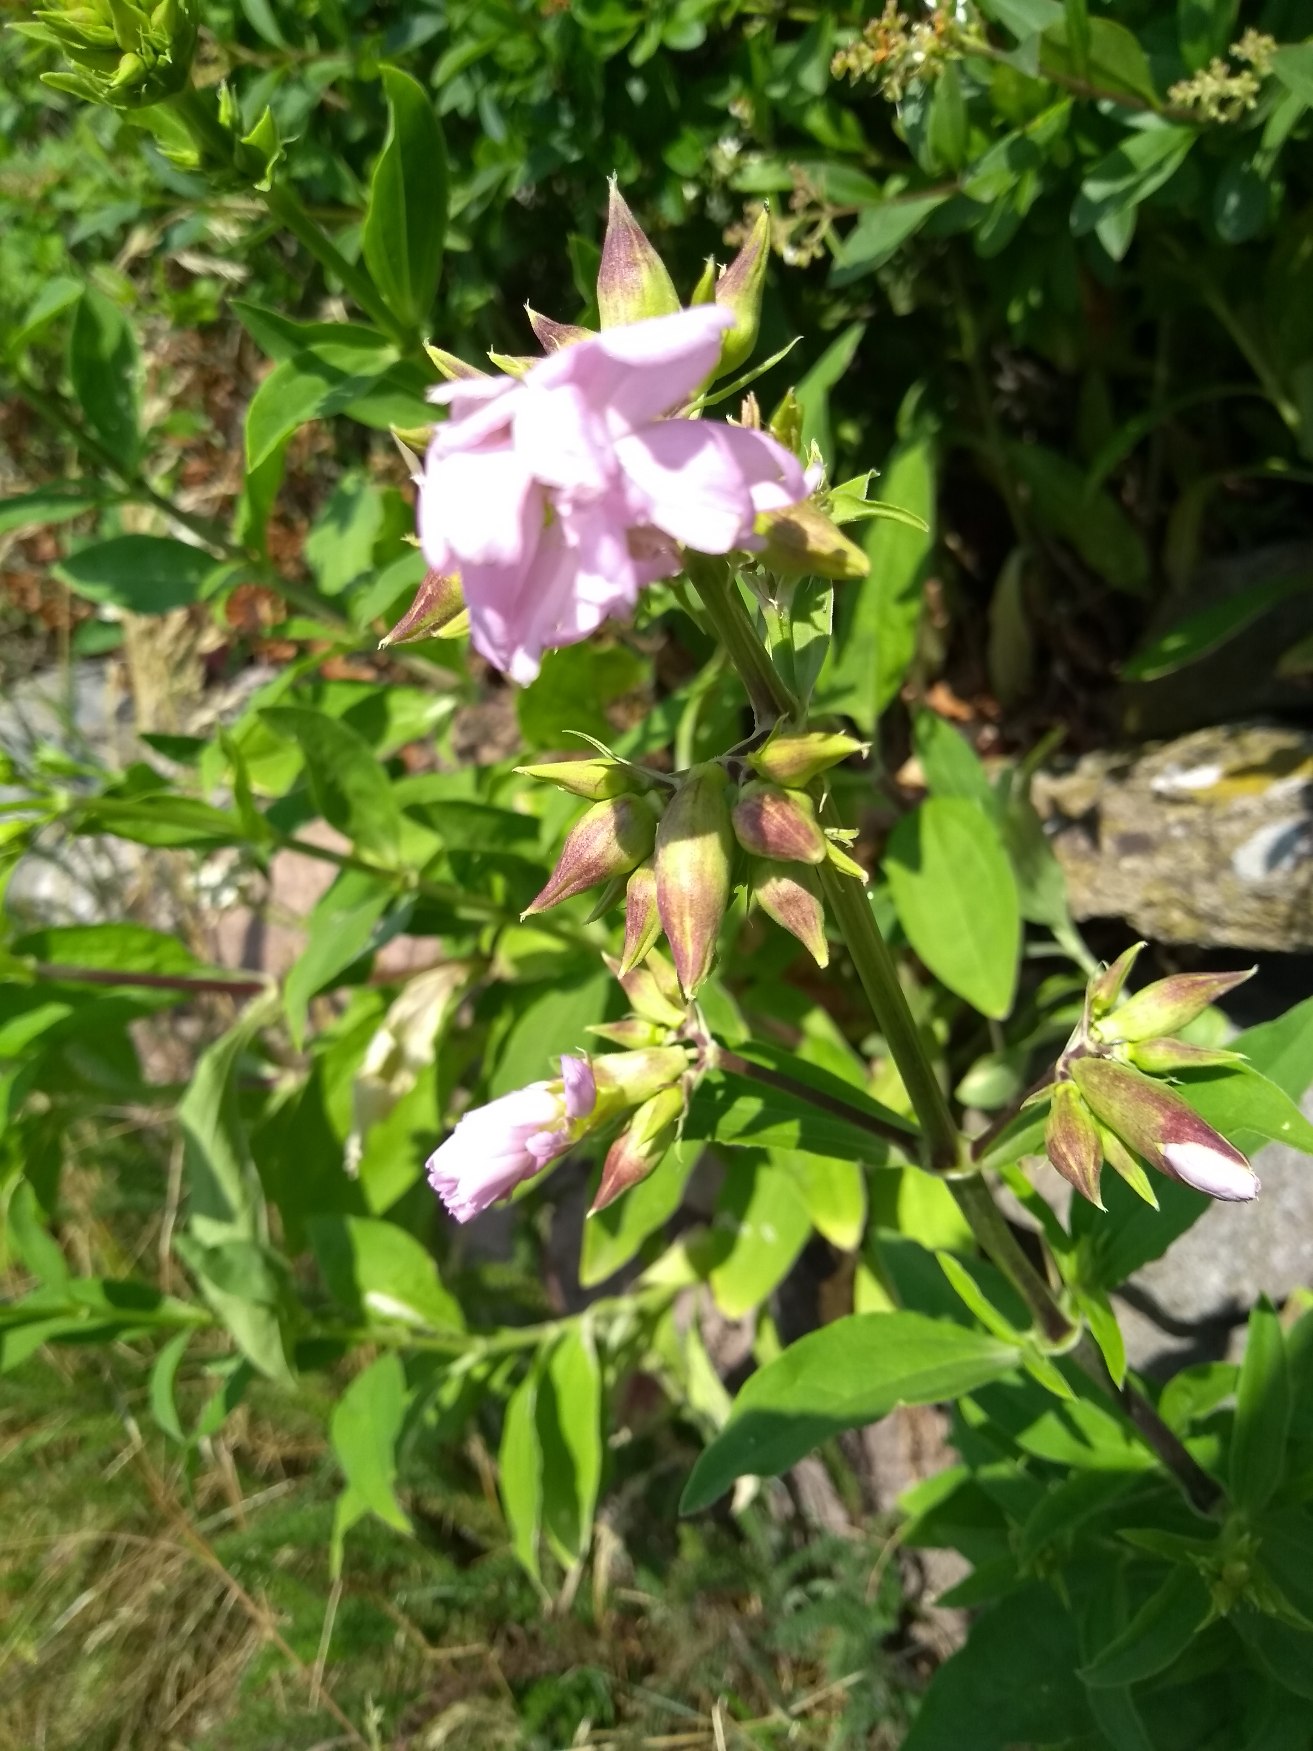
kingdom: Plantae
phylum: Tracheophyta
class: Magnoliopsida
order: Caryophyllales
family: Caryophyllaceae
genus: Saponaria
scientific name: Saponaria officinalis
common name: Sæbeurt
